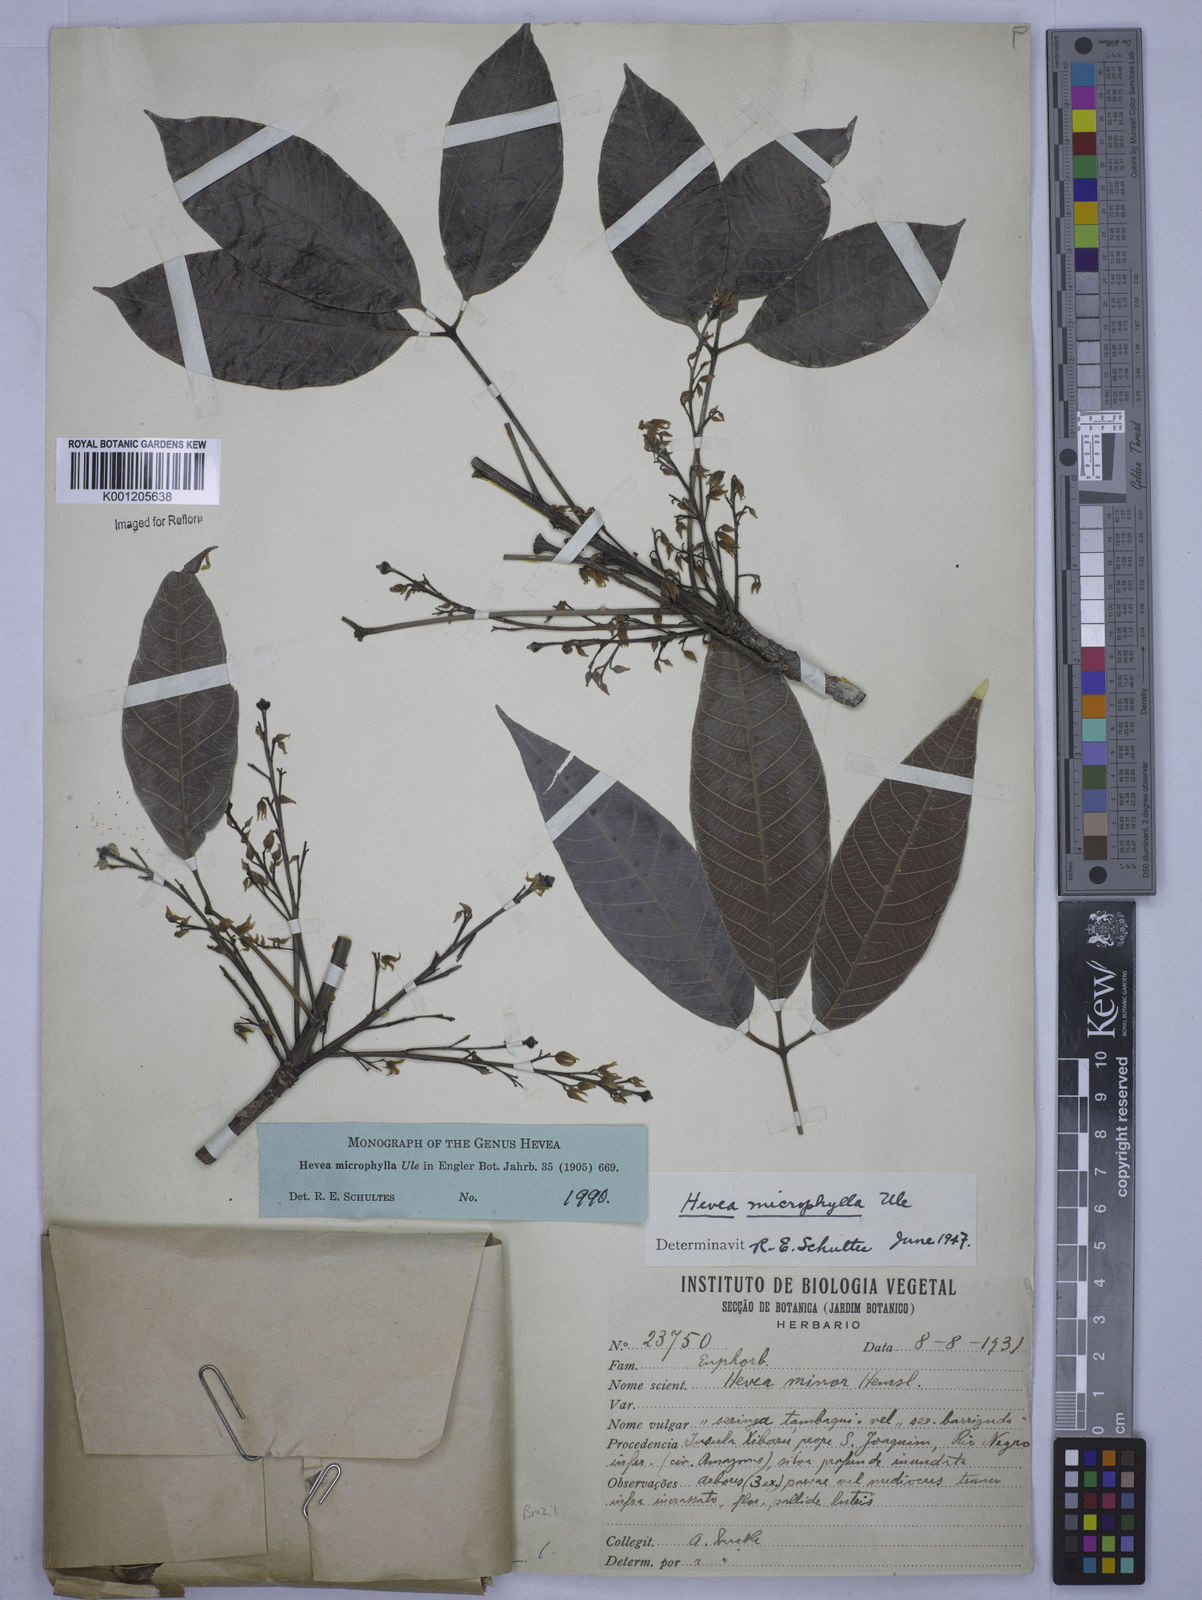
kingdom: Plantae
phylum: Tracheophyta
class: Magnoliopsida
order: Malpighiales
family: Euphorbiaceae
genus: Hevea
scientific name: Hevea microphylla
